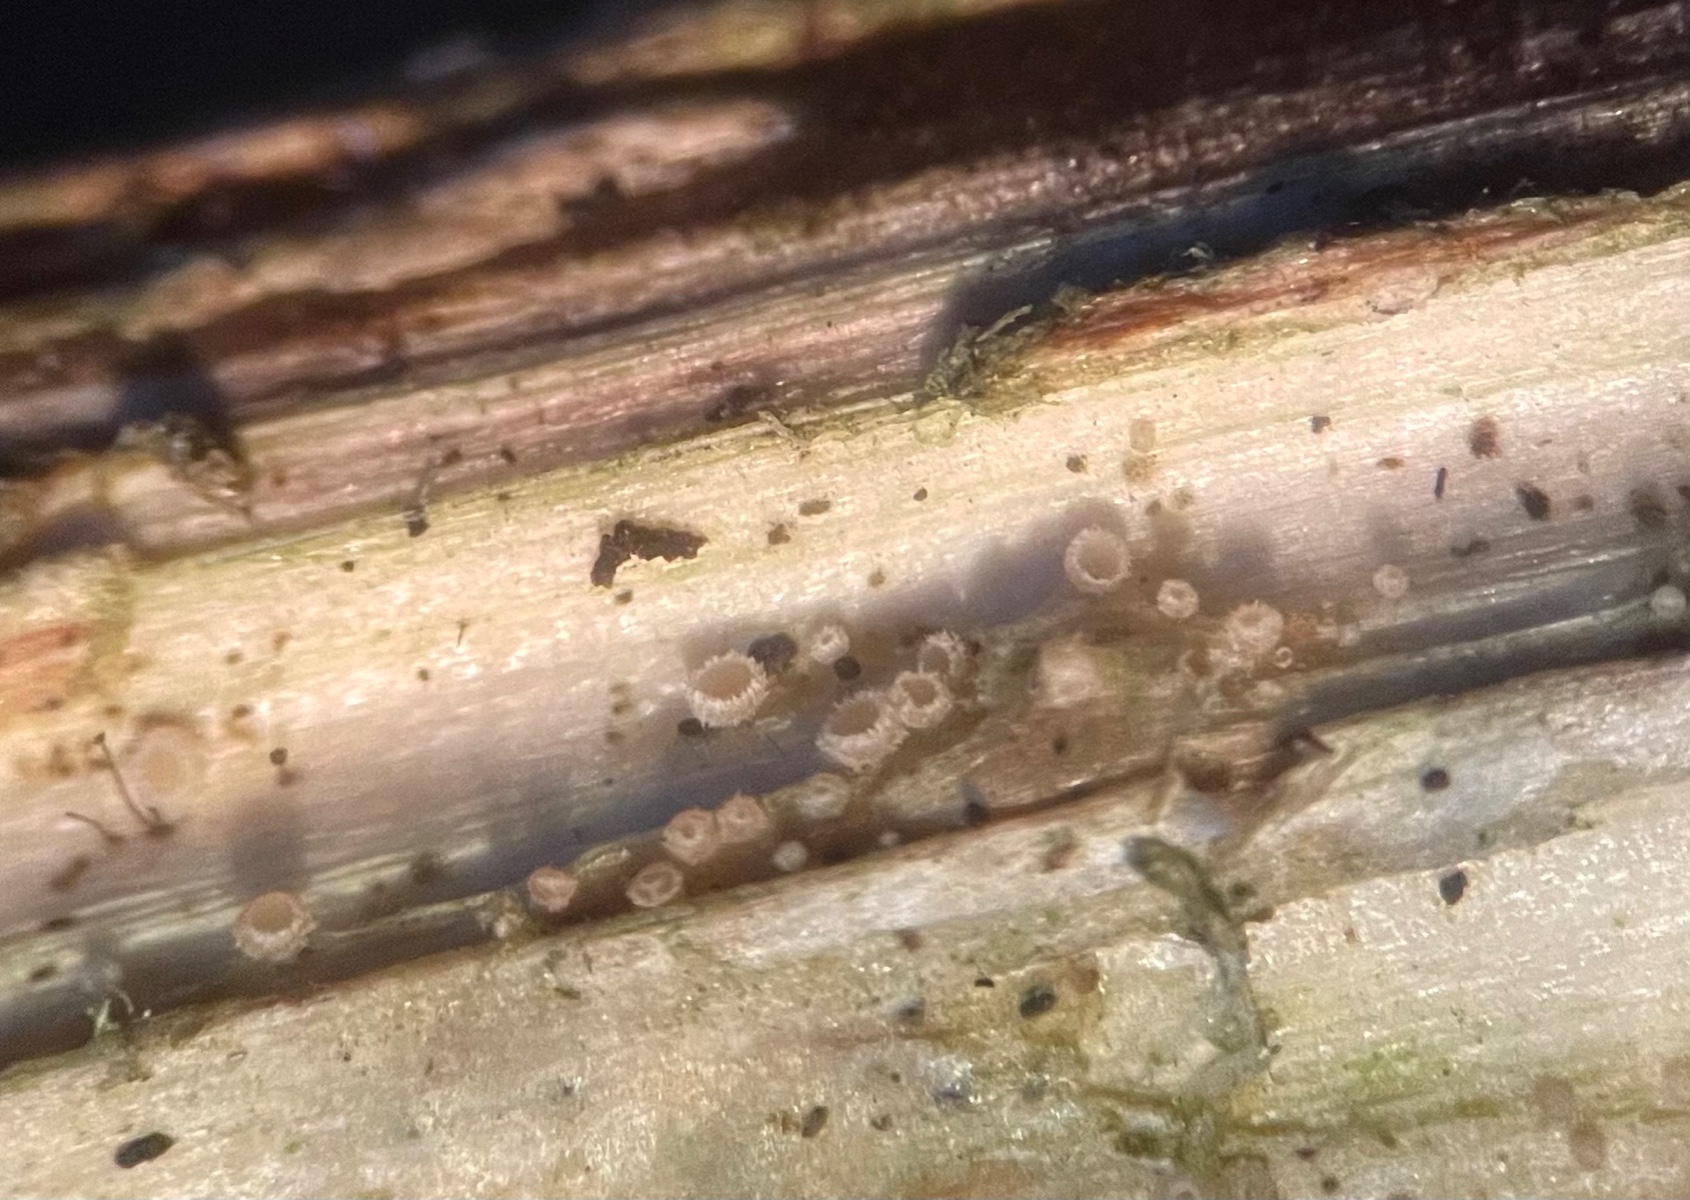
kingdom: Fungi
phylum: Ascomycota
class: Leotiomycetes
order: Helotiales
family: Hyaloscyphaceae
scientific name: Hyaloscyphaceae
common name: frynseskivefamilien
